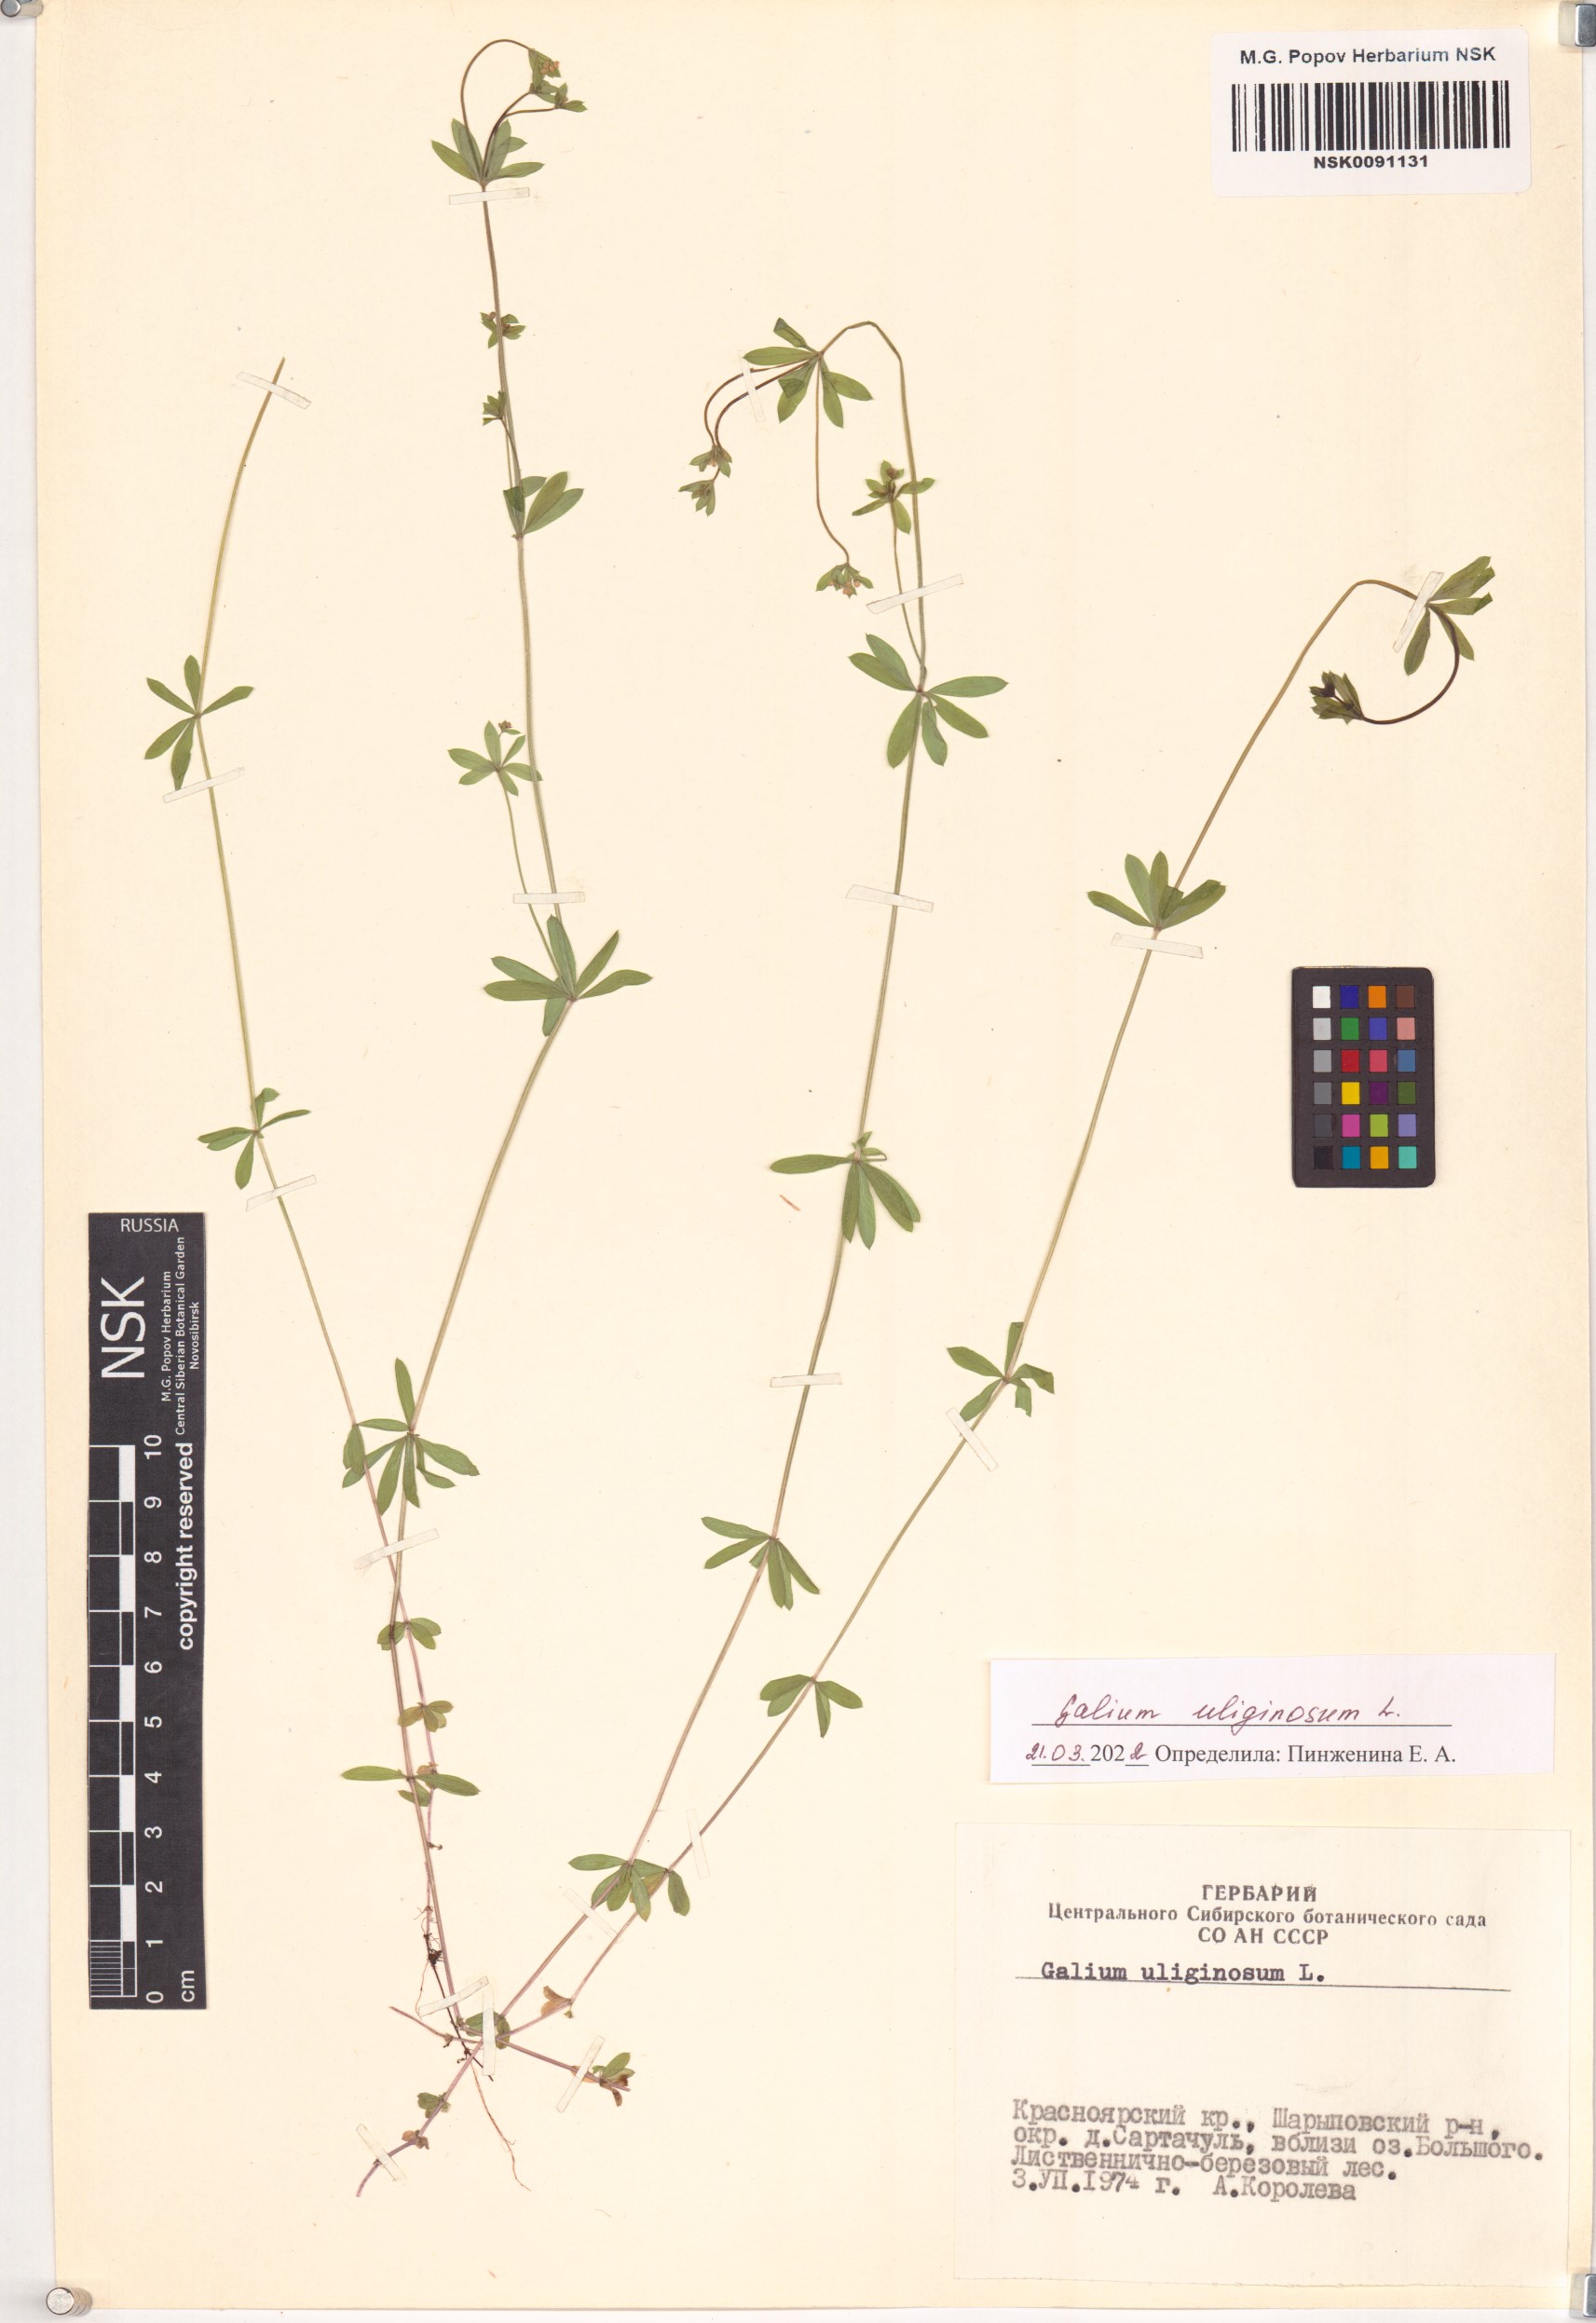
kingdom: Plantae
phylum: Tracheophyta
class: Magnoliopsida
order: Gentianales
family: Rubiaceae
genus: Galium
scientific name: Galium uliginosum
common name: Fen bedstraw
